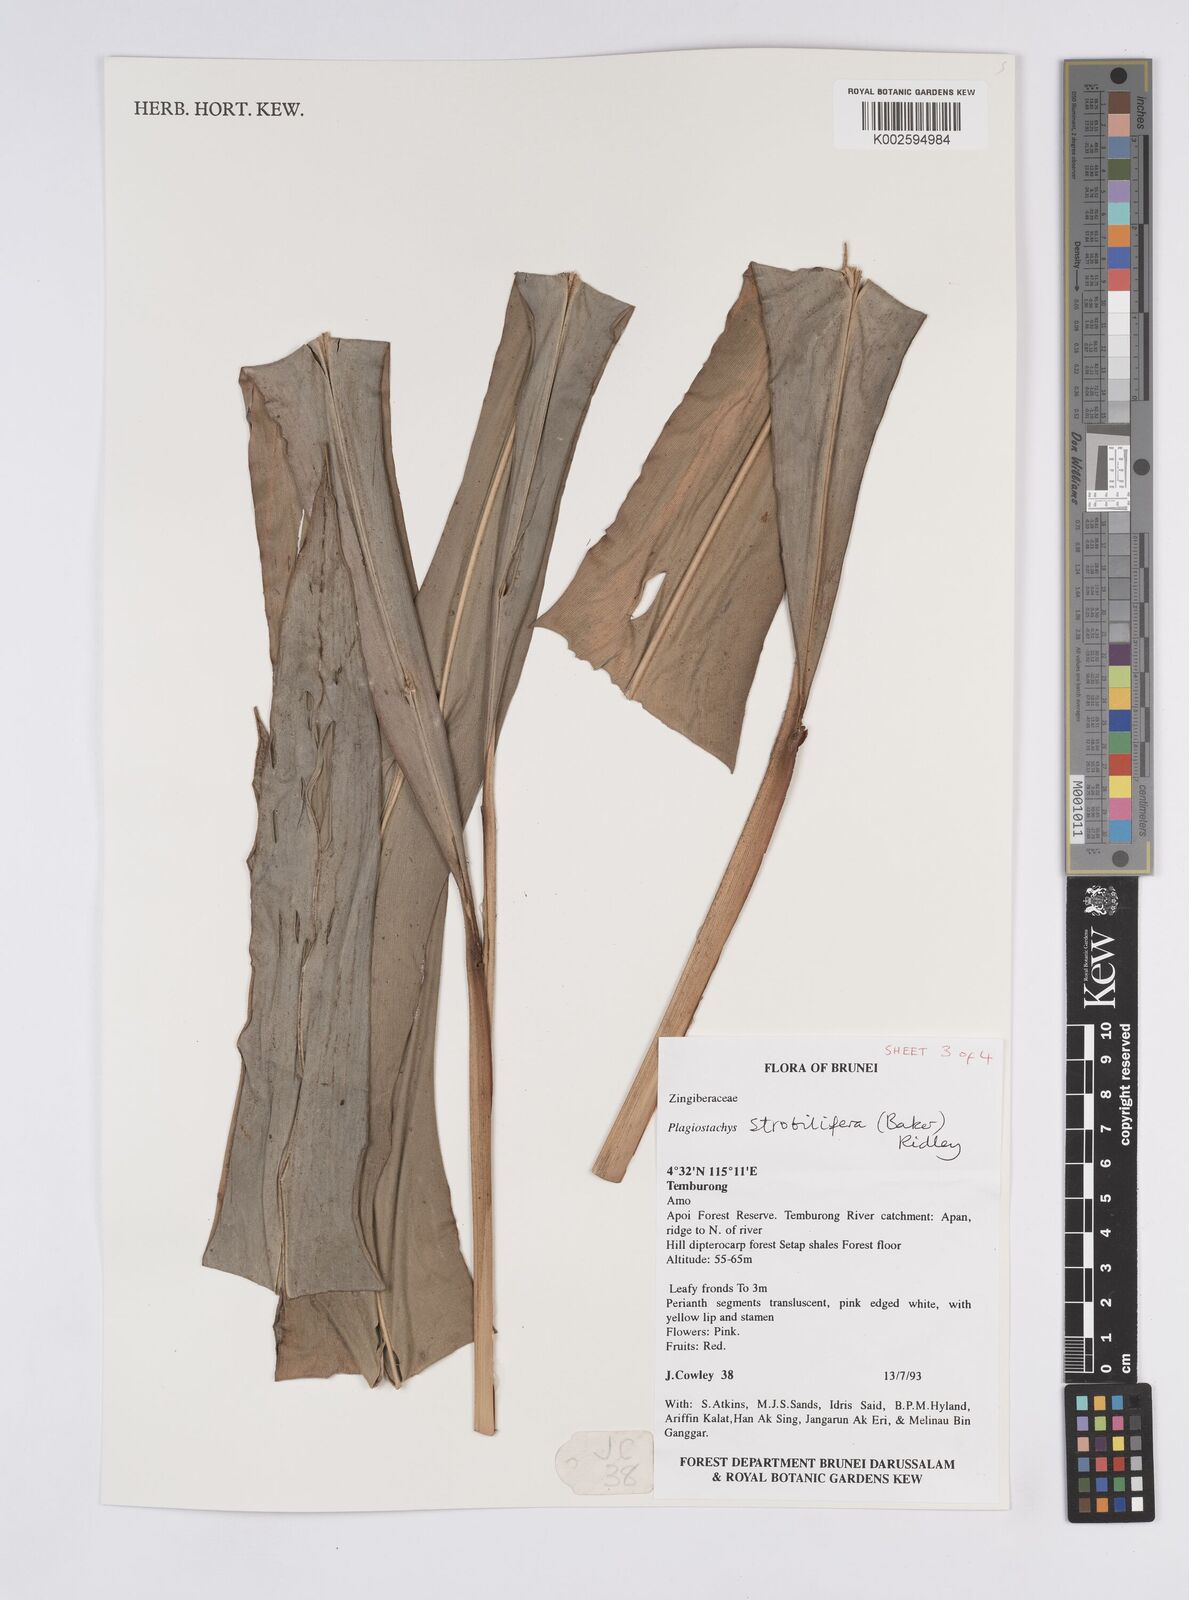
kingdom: Plantae
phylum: Tracheophyta
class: Liliopsida
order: Zingiberales
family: Zingiberaceae
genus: Plagiostachys
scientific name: Plagiostachys strobilifera
